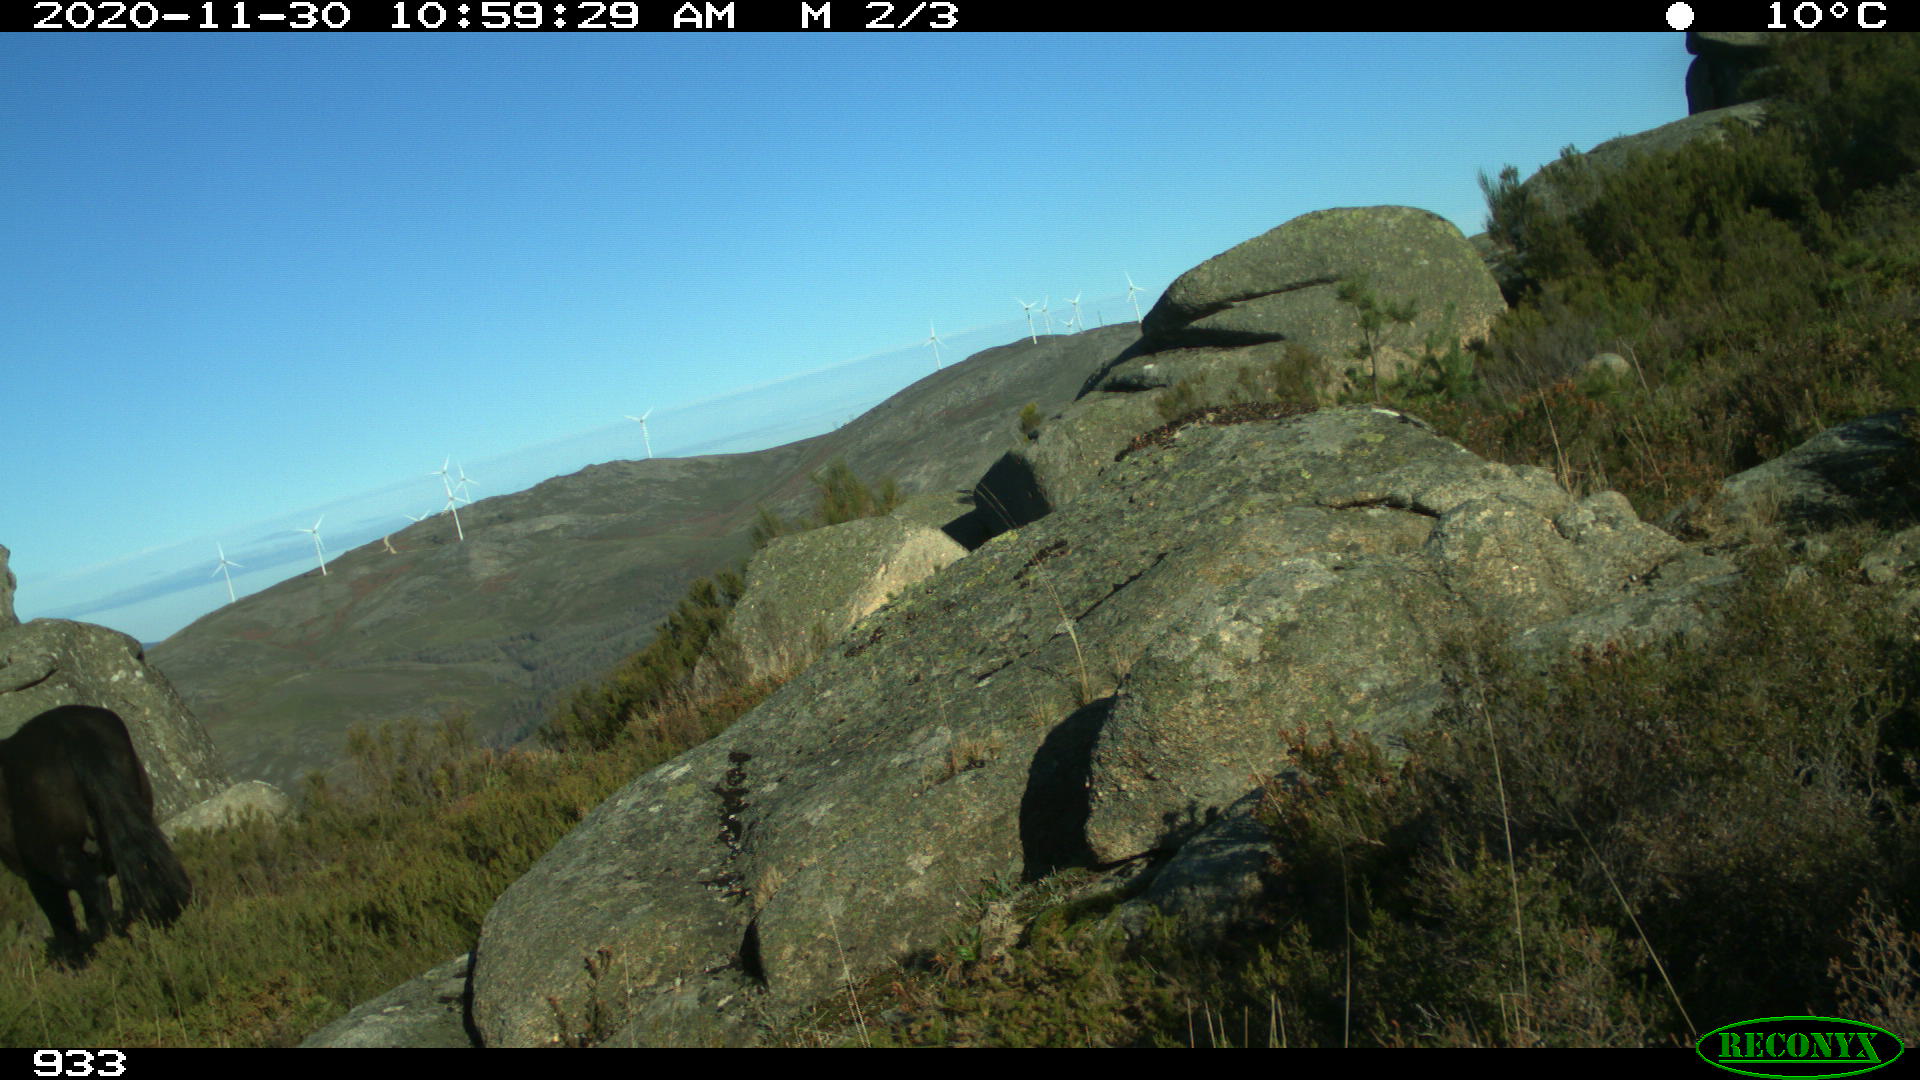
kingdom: Animalia
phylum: Chordata
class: Mammalia
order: Perissodactyla
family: Equidae
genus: Equus
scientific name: Equus caballus
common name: Horse
